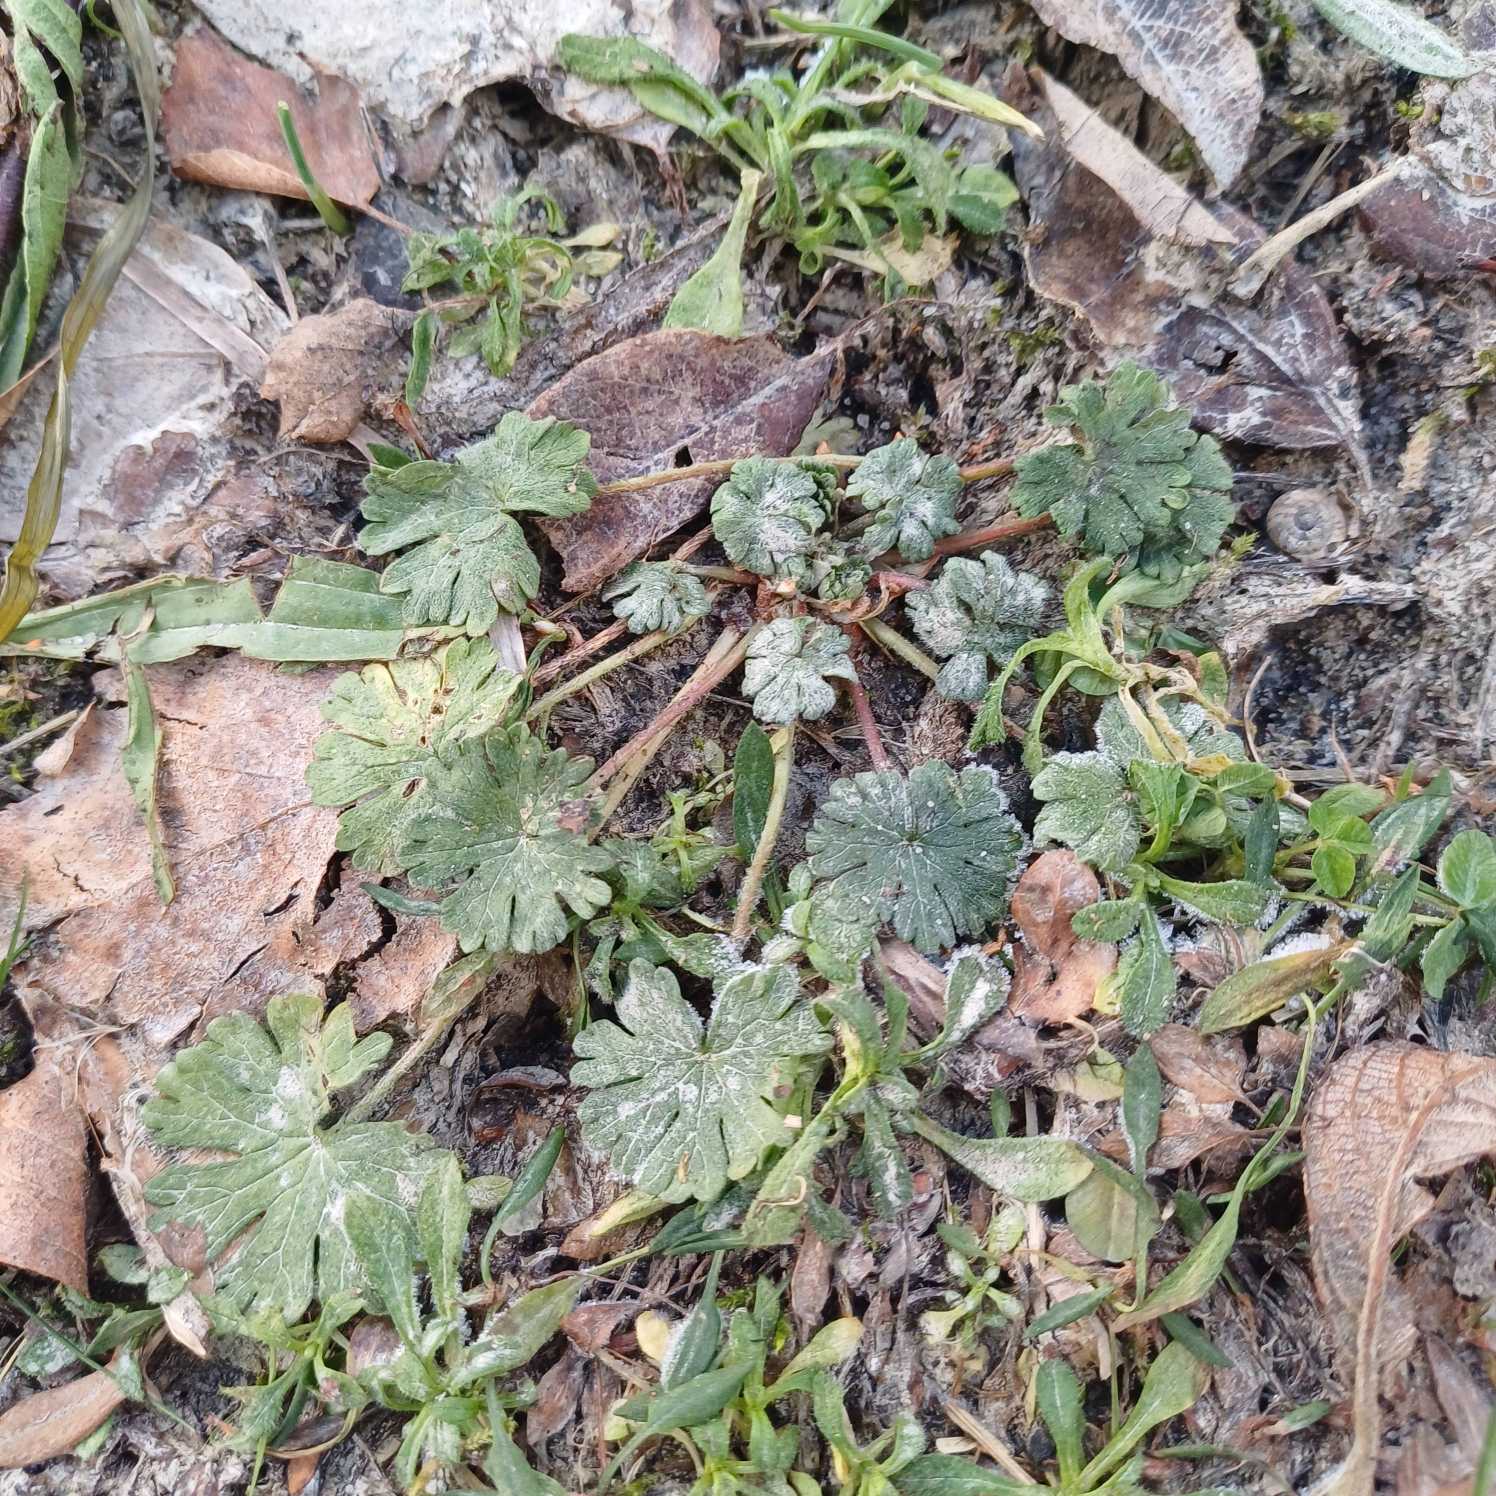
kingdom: Plantae
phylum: Tracheophyta
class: Magnoliopsida
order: Geraniales
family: Geraniaceae
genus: Geranium
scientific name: Geranium molle
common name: Blød storkenæb
